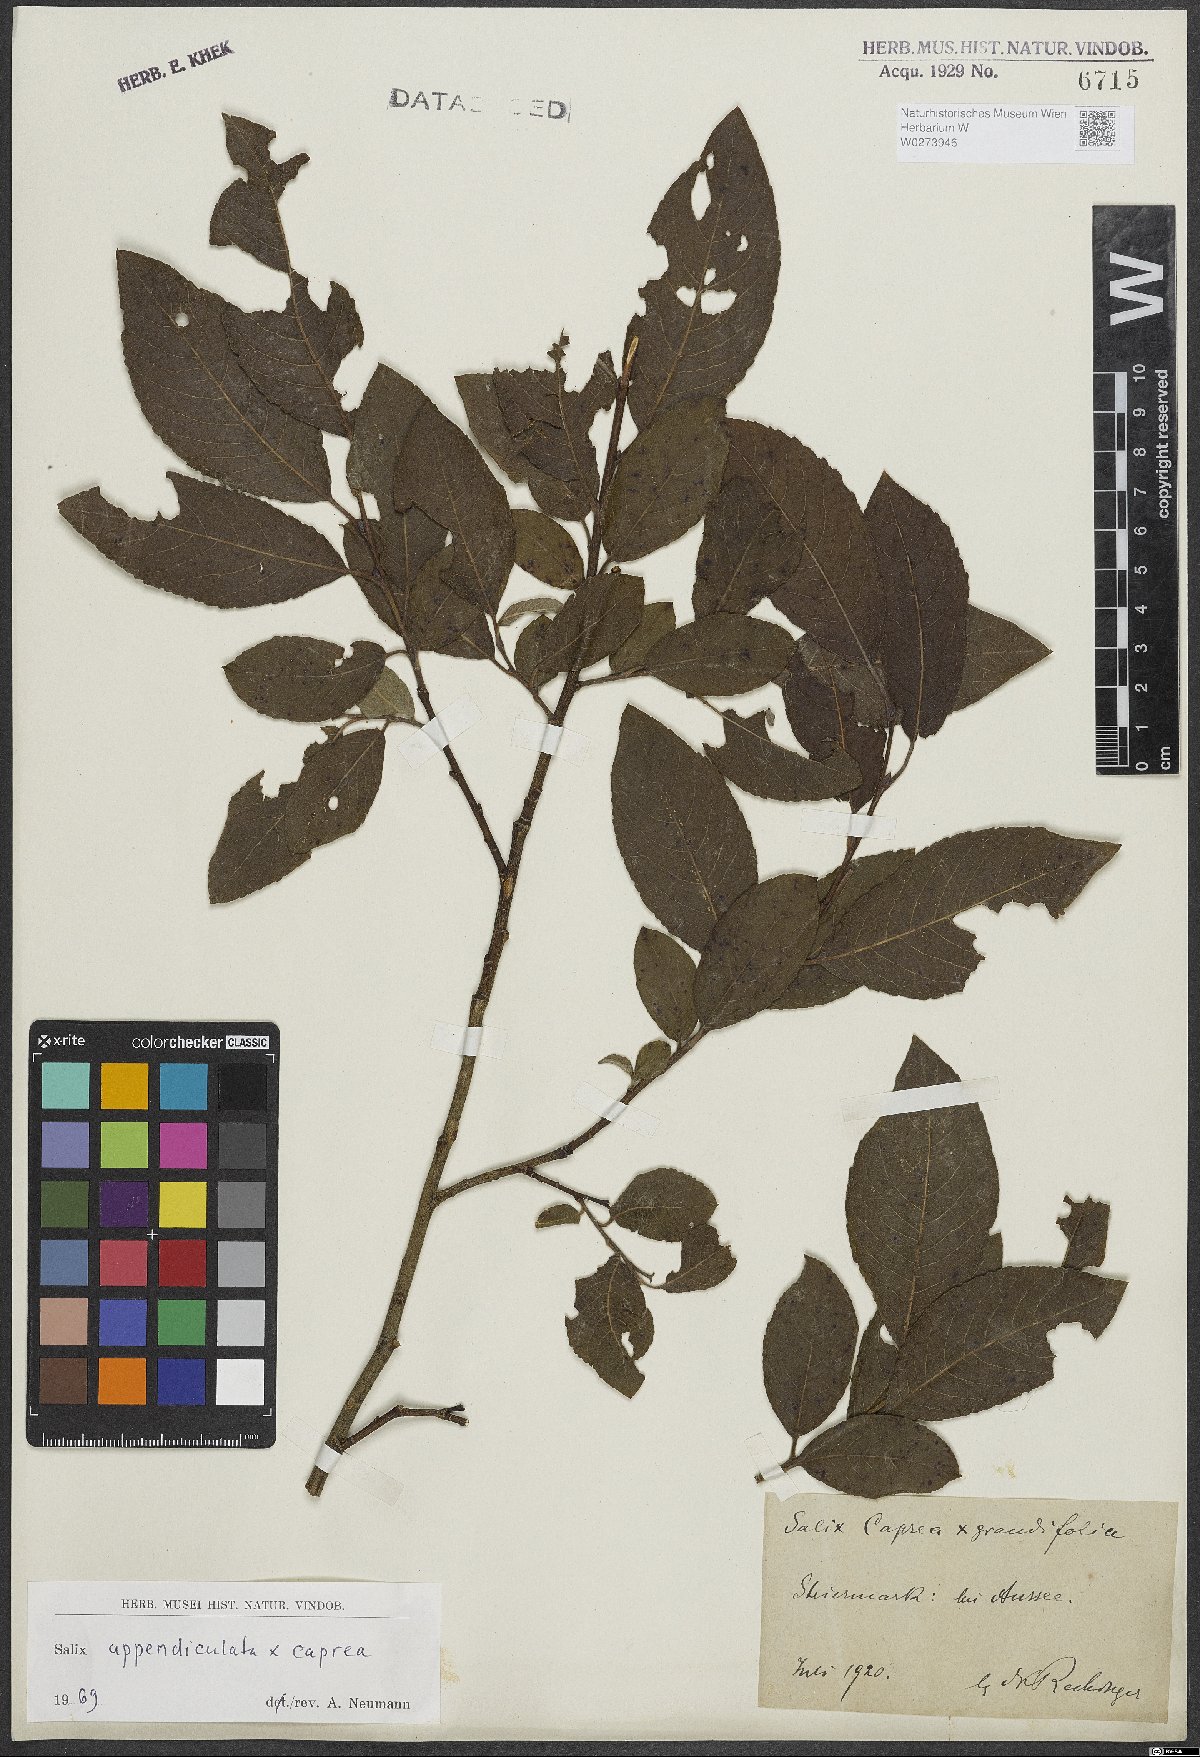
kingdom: Plantae
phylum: Tracheophyta
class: Magnoliopsida
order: Malpighiales
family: Salicaceae
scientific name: Salicaceae
